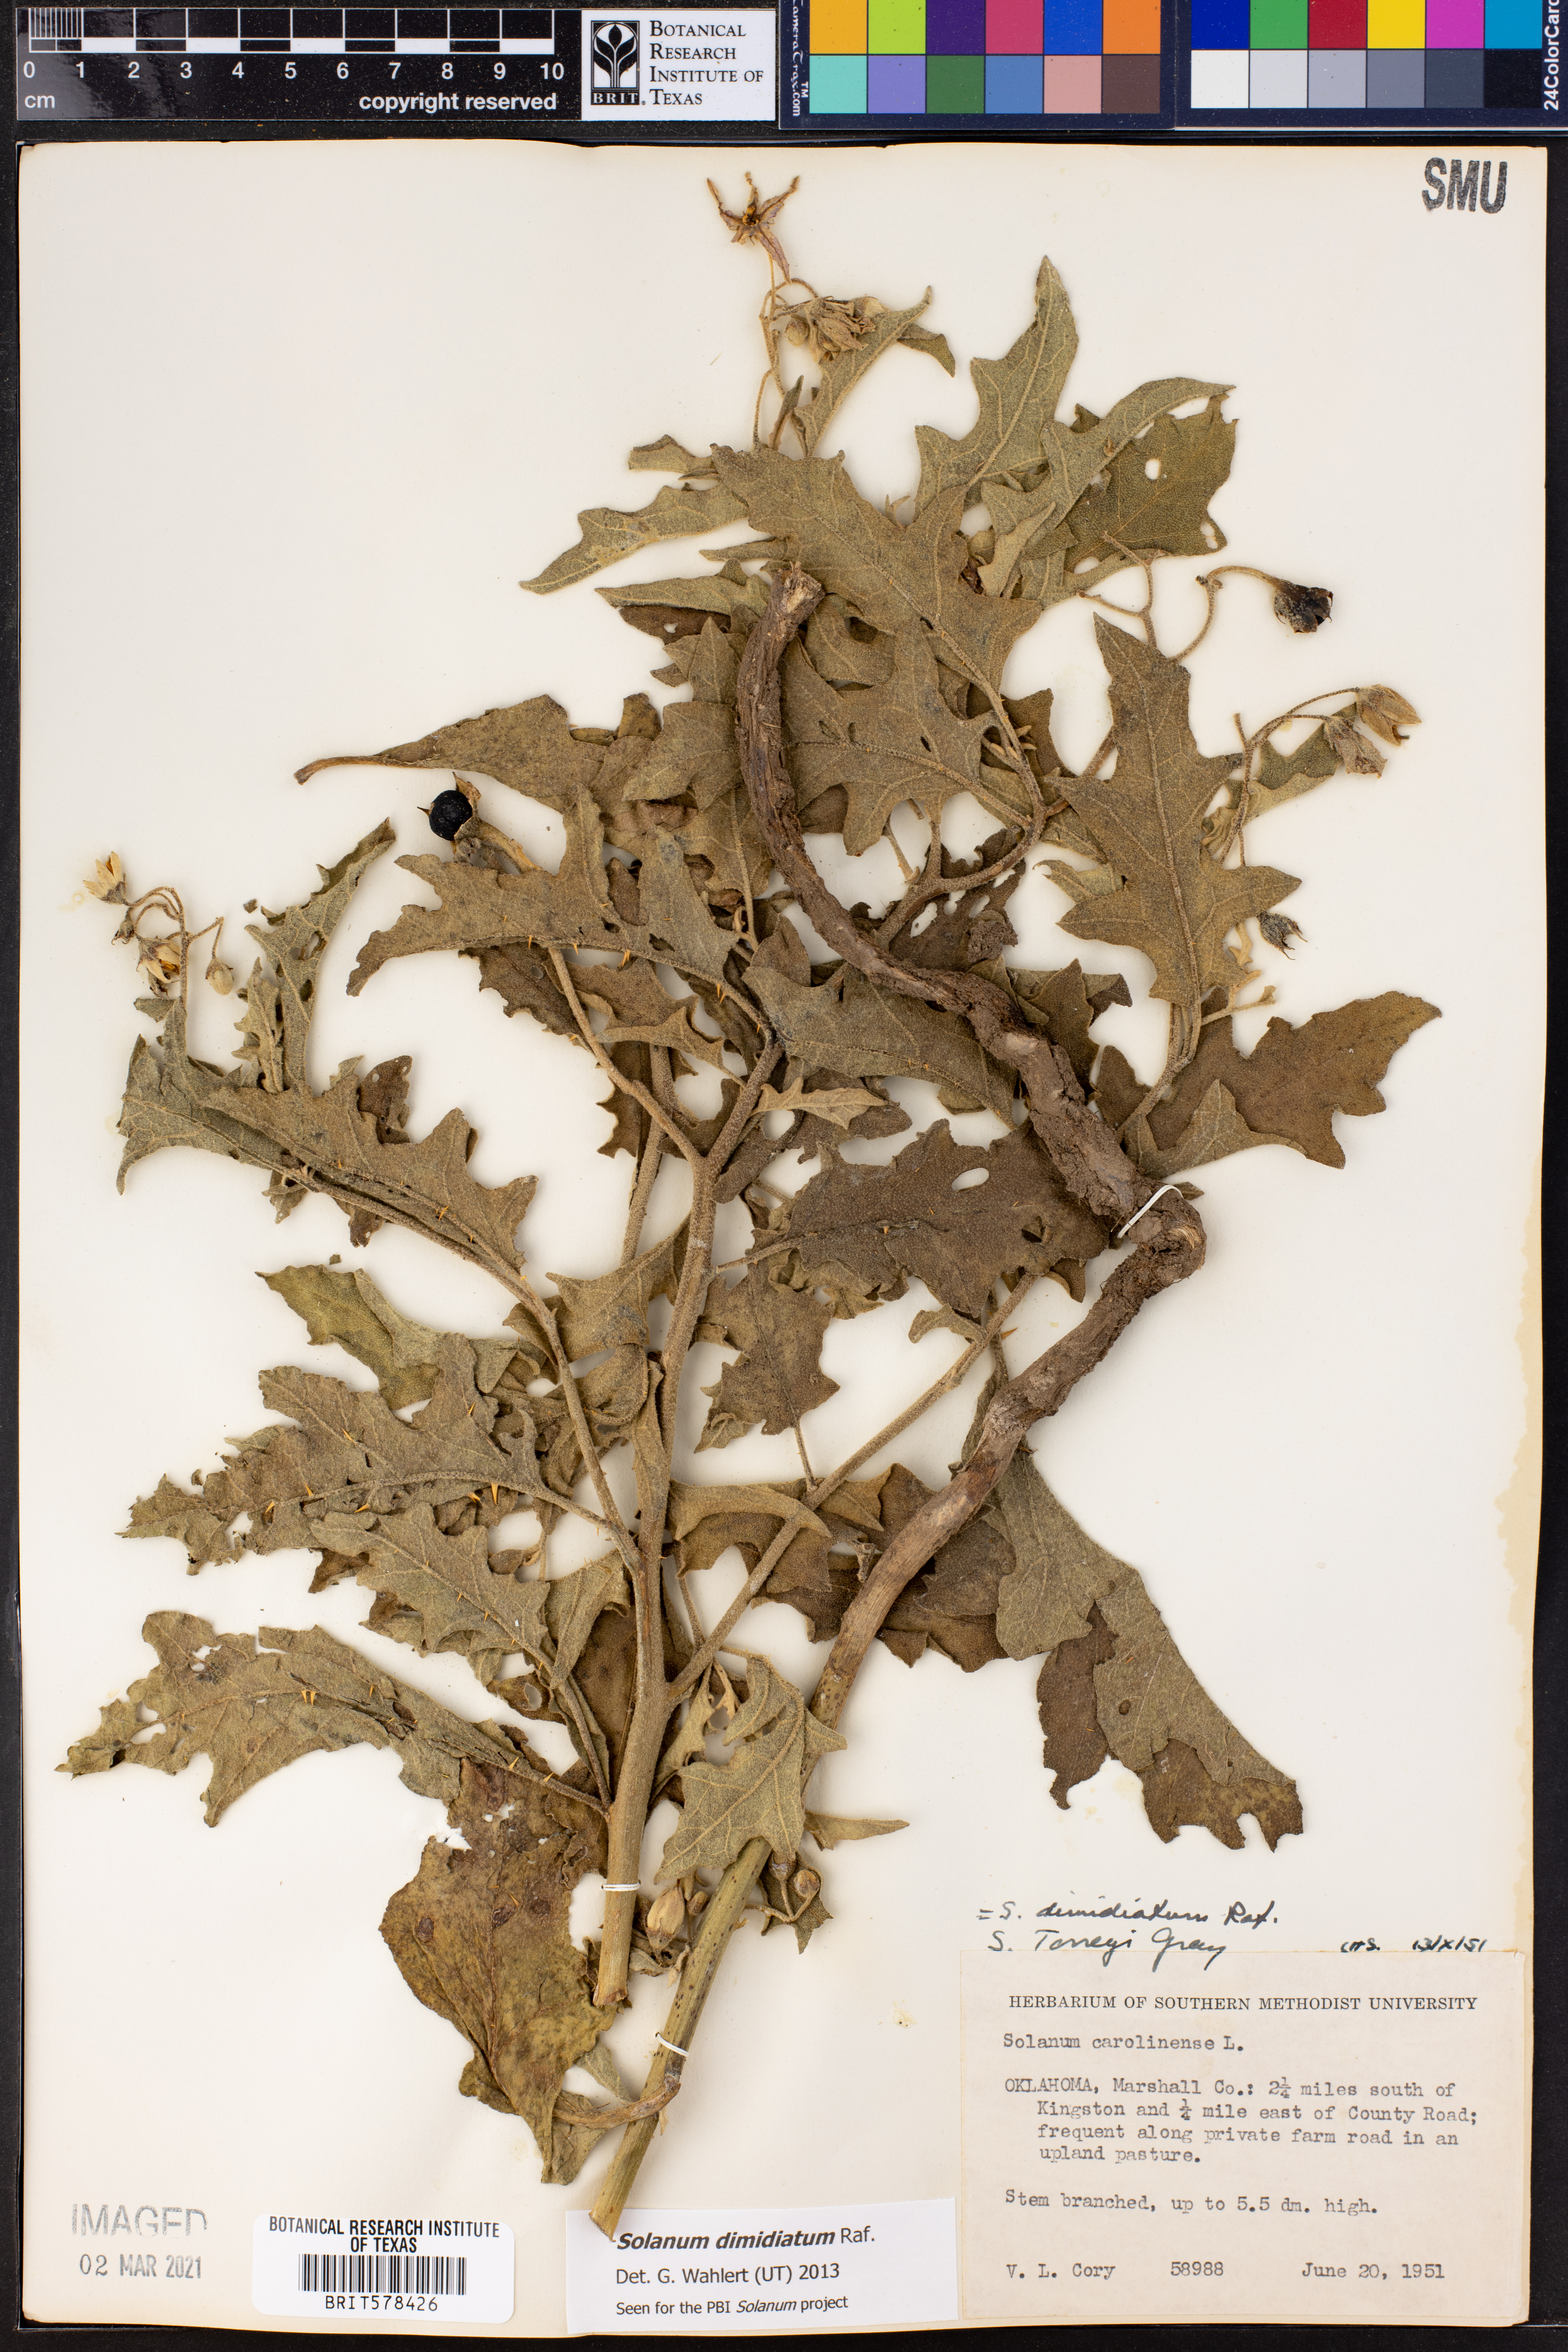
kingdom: Plantae
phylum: Tracheophyta
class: Magnoliopsida
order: Solanales
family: Solanaceae
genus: Solanum
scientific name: Solanum dimidiatum
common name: Carolina horse-nettle
